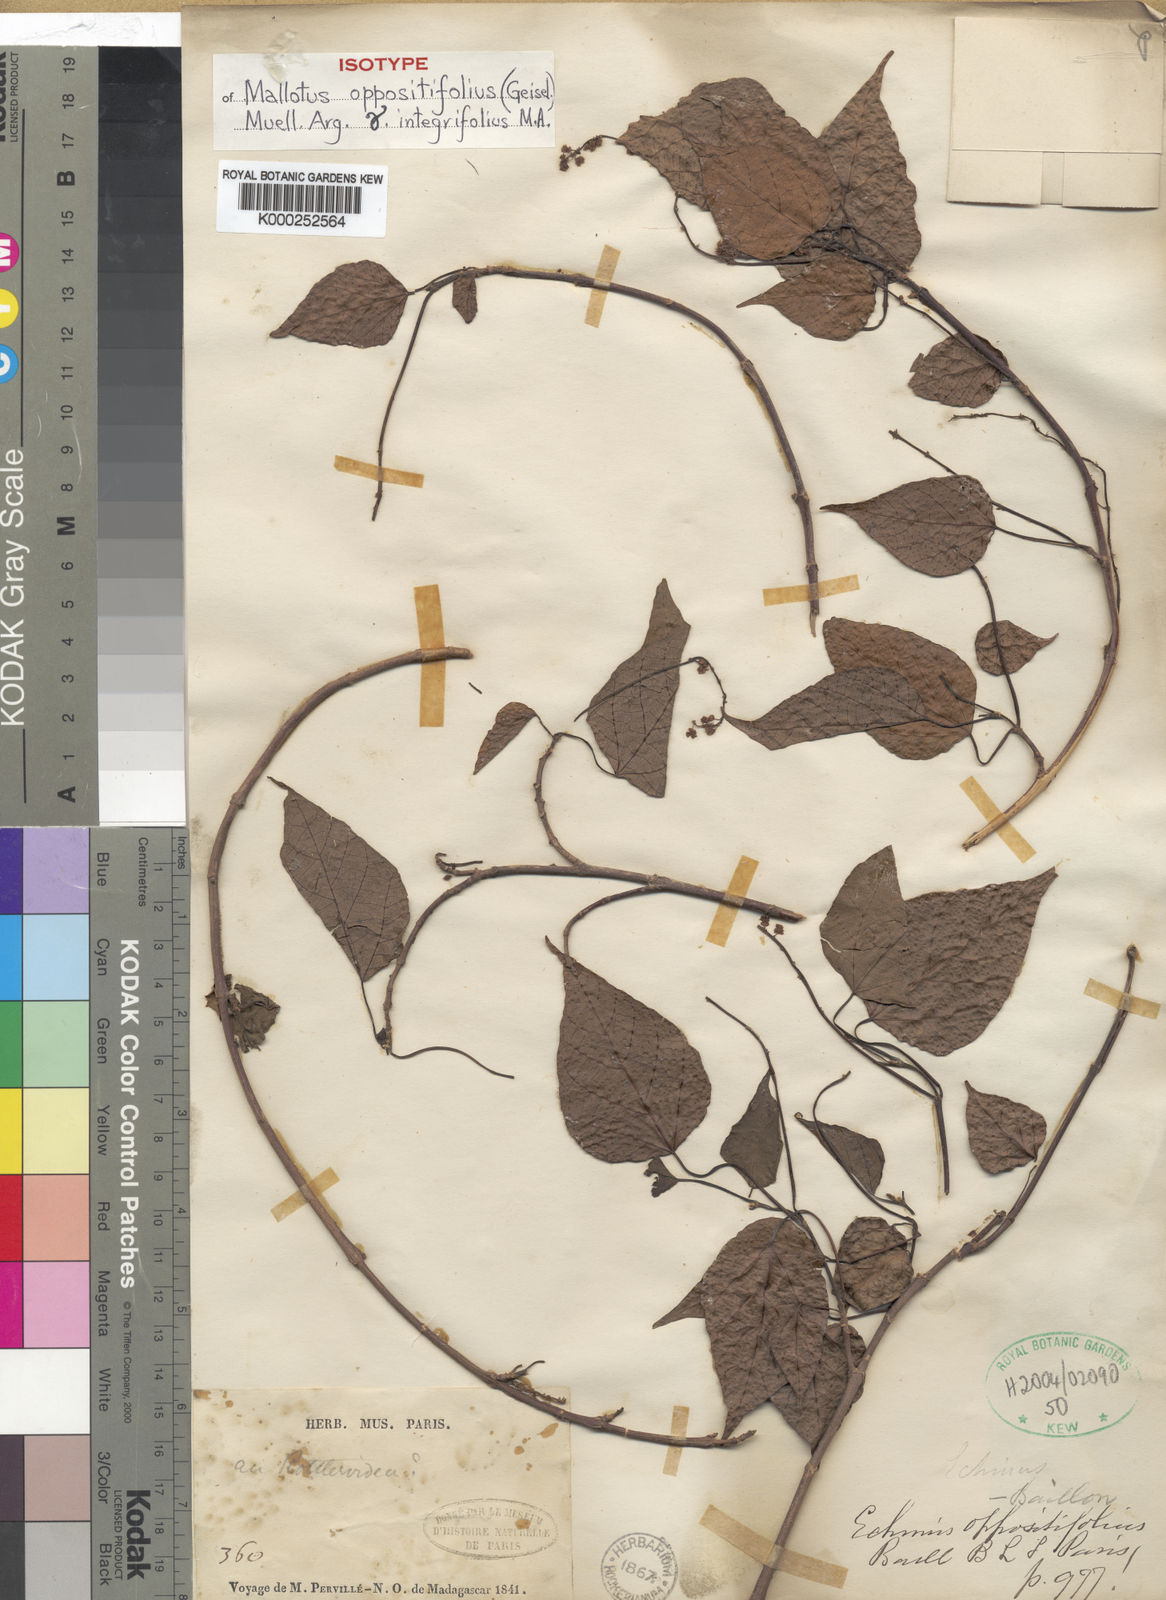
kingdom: Plantae
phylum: Tracheophyta
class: Magnoliopsida
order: Malpighiales
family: Euphorbiaceae
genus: Mallotus
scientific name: Mallotus
